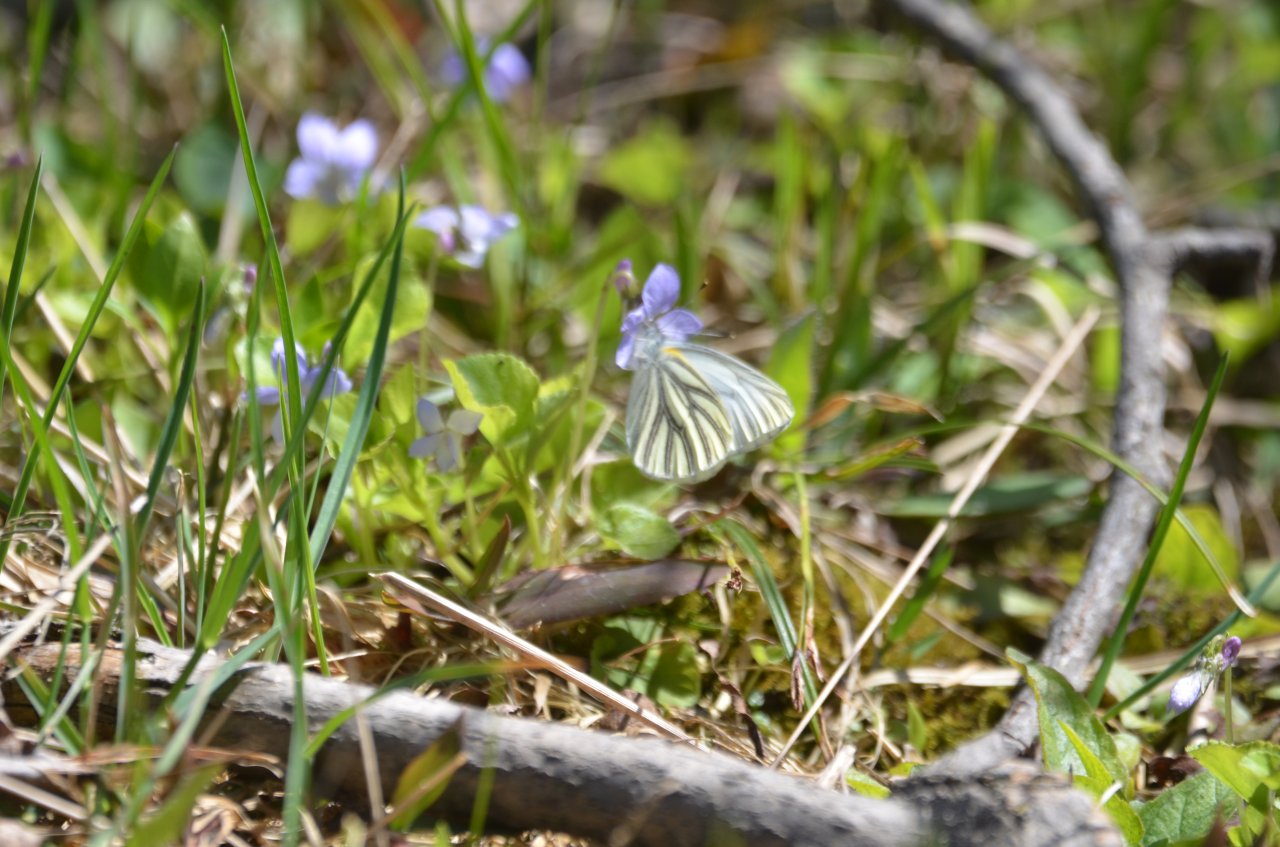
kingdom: Animalia
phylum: Arthropoda
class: Insecta
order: Lepidoptera
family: Pieridae
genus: Pieris
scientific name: Pieris oleracea
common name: Mustard White
